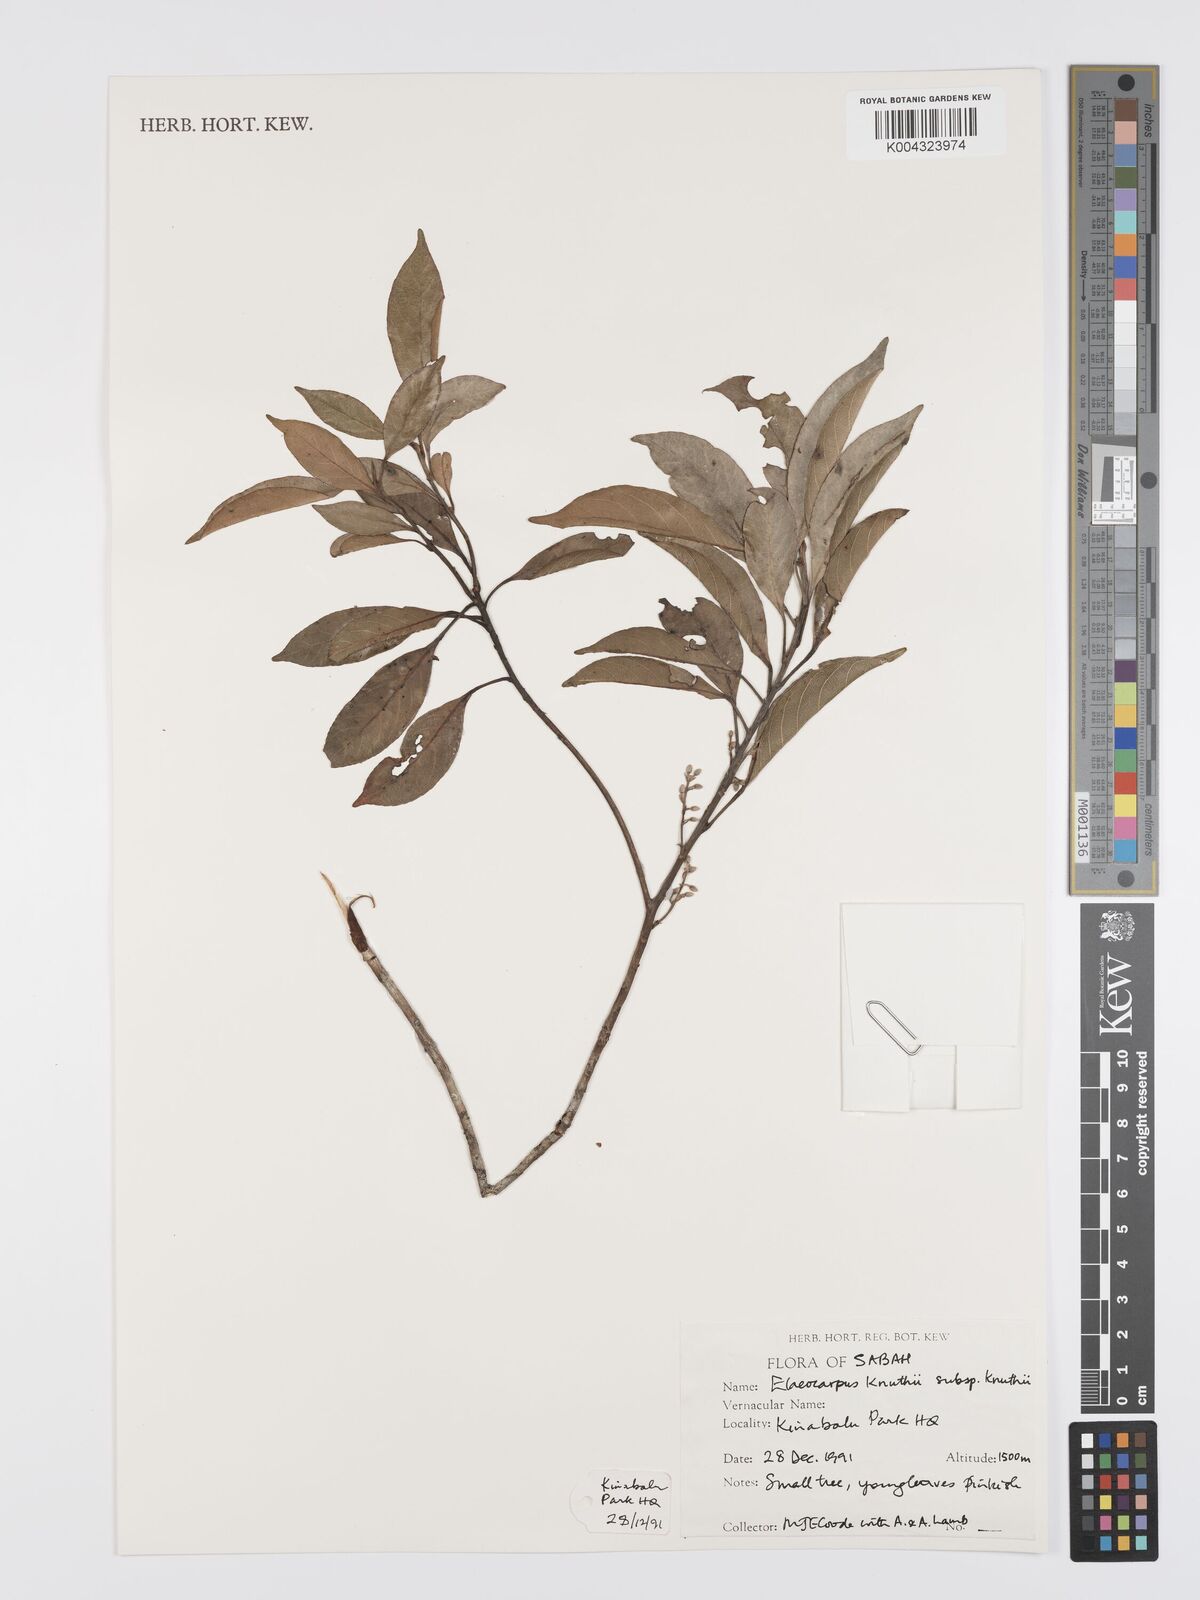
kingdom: Plantae
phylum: Tracheophyta
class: Magnoliopsida
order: Oxalidales
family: Elaeocarpaceae
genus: Elaeocarpus
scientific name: Elaeocarpus knuthii
